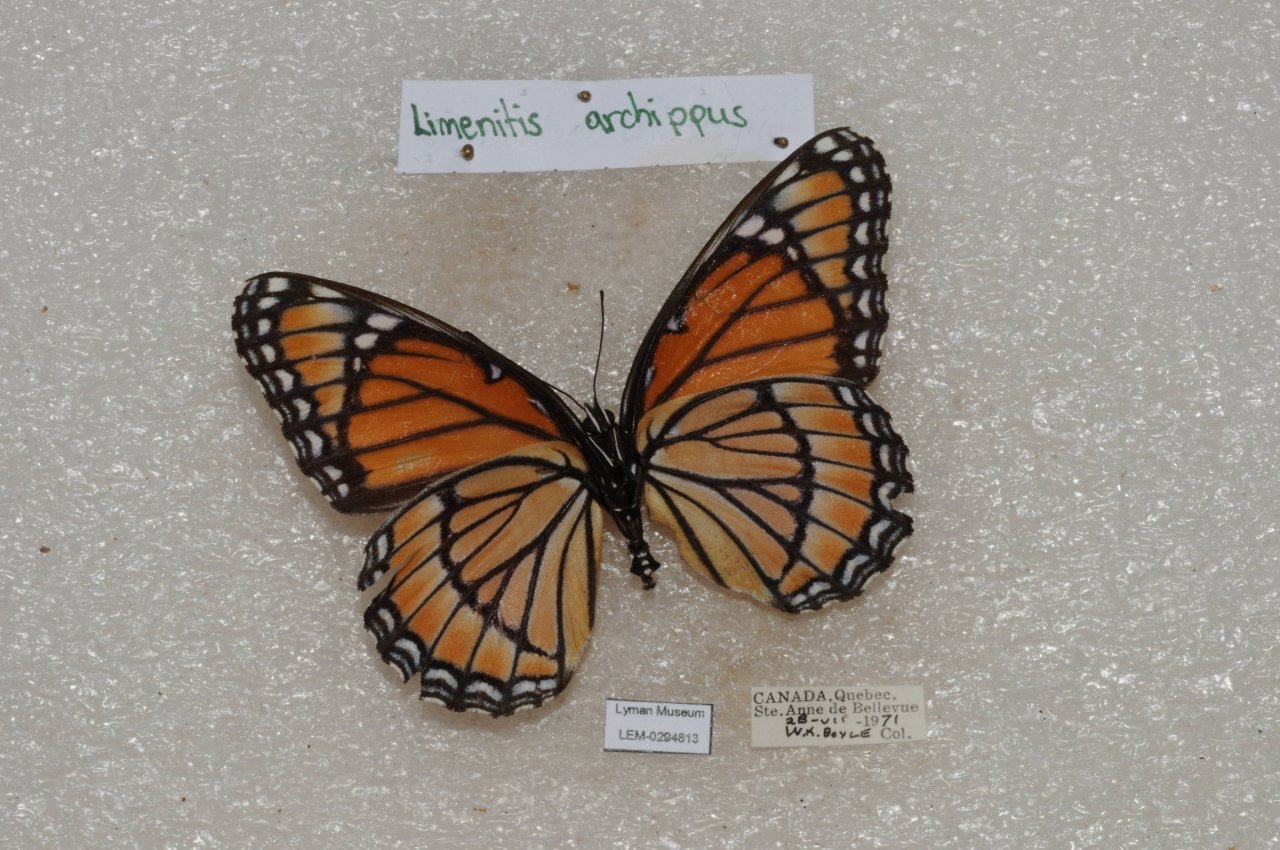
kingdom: Animalia
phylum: Arthropoda
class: Insecta
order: Lepidoptera
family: Nymphalidae
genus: Limenitis
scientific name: Limenitis archippus
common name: Viceroy
